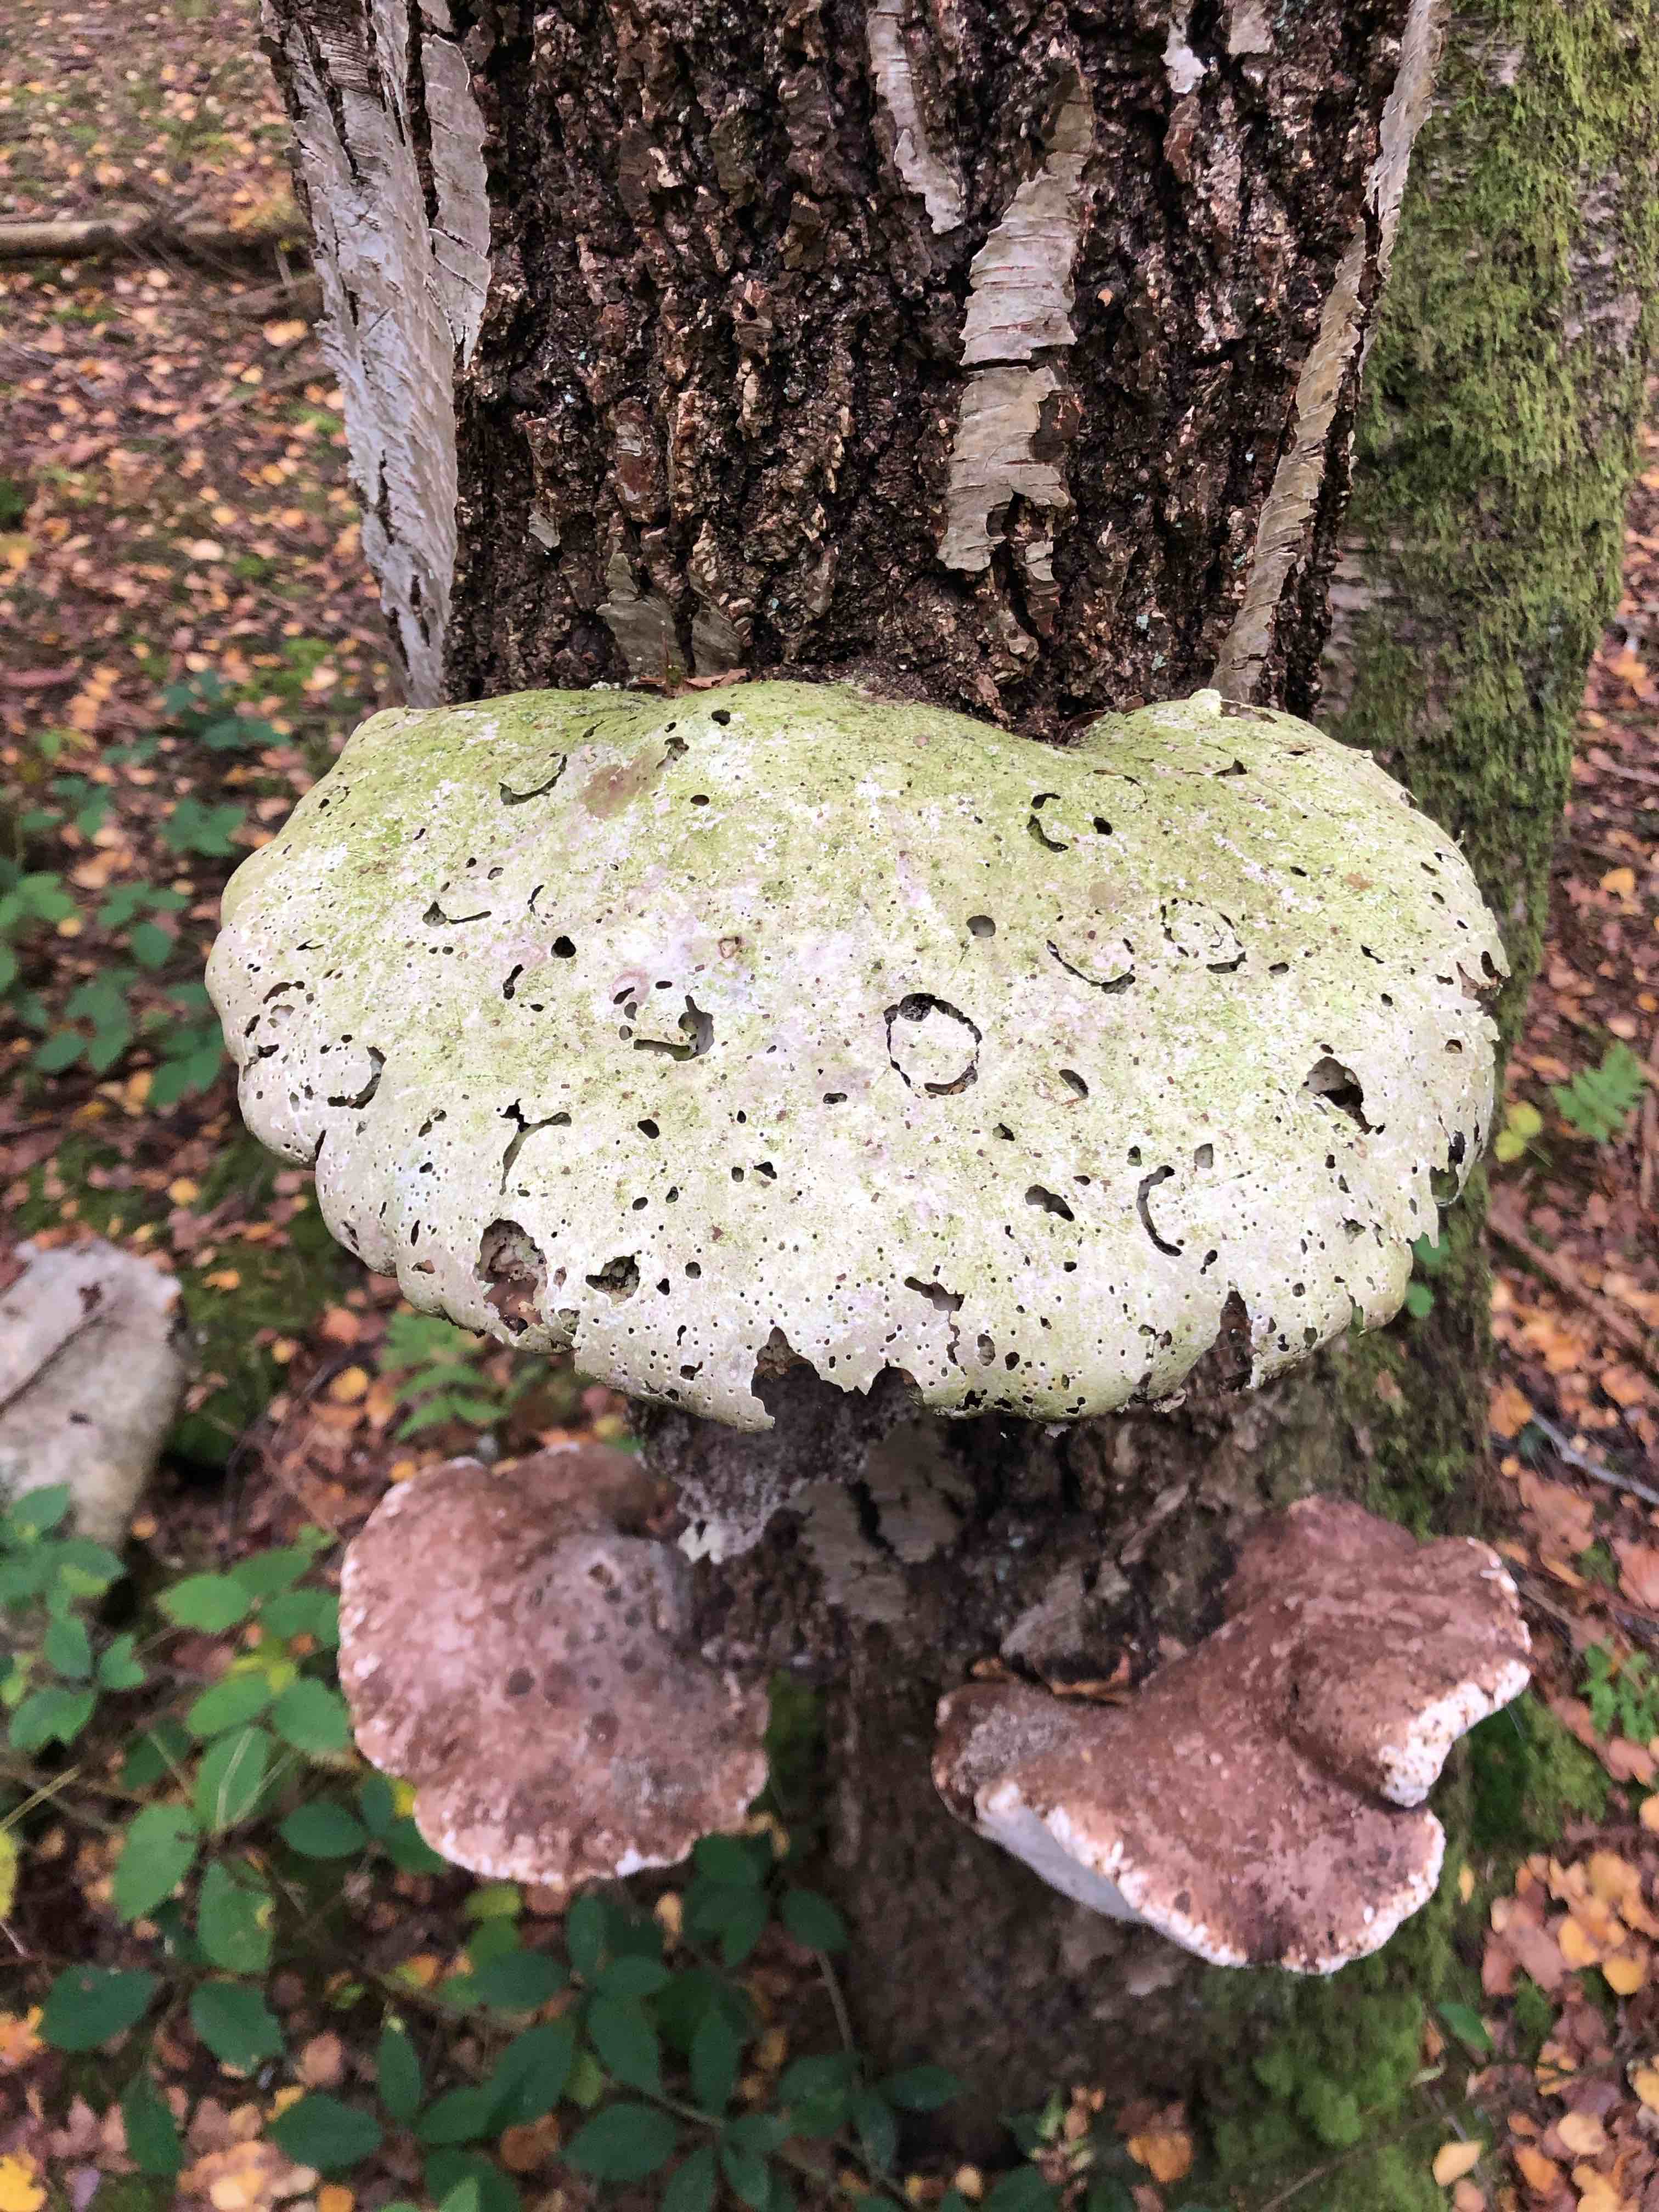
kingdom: Fungi
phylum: Basidiomycota
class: Agaricomycetes
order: Polyporales
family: Fomitopsidaceae
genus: Fomitopsis
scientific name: Fomitopsis betulina
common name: birkeporesvamp
